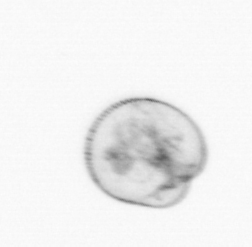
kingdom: Chromista
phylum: Myzozoa
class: Dinophyceae
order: Noctilucales
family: Noctilucaceae
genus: Noctiluca
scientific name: Noctiluca scintillans
